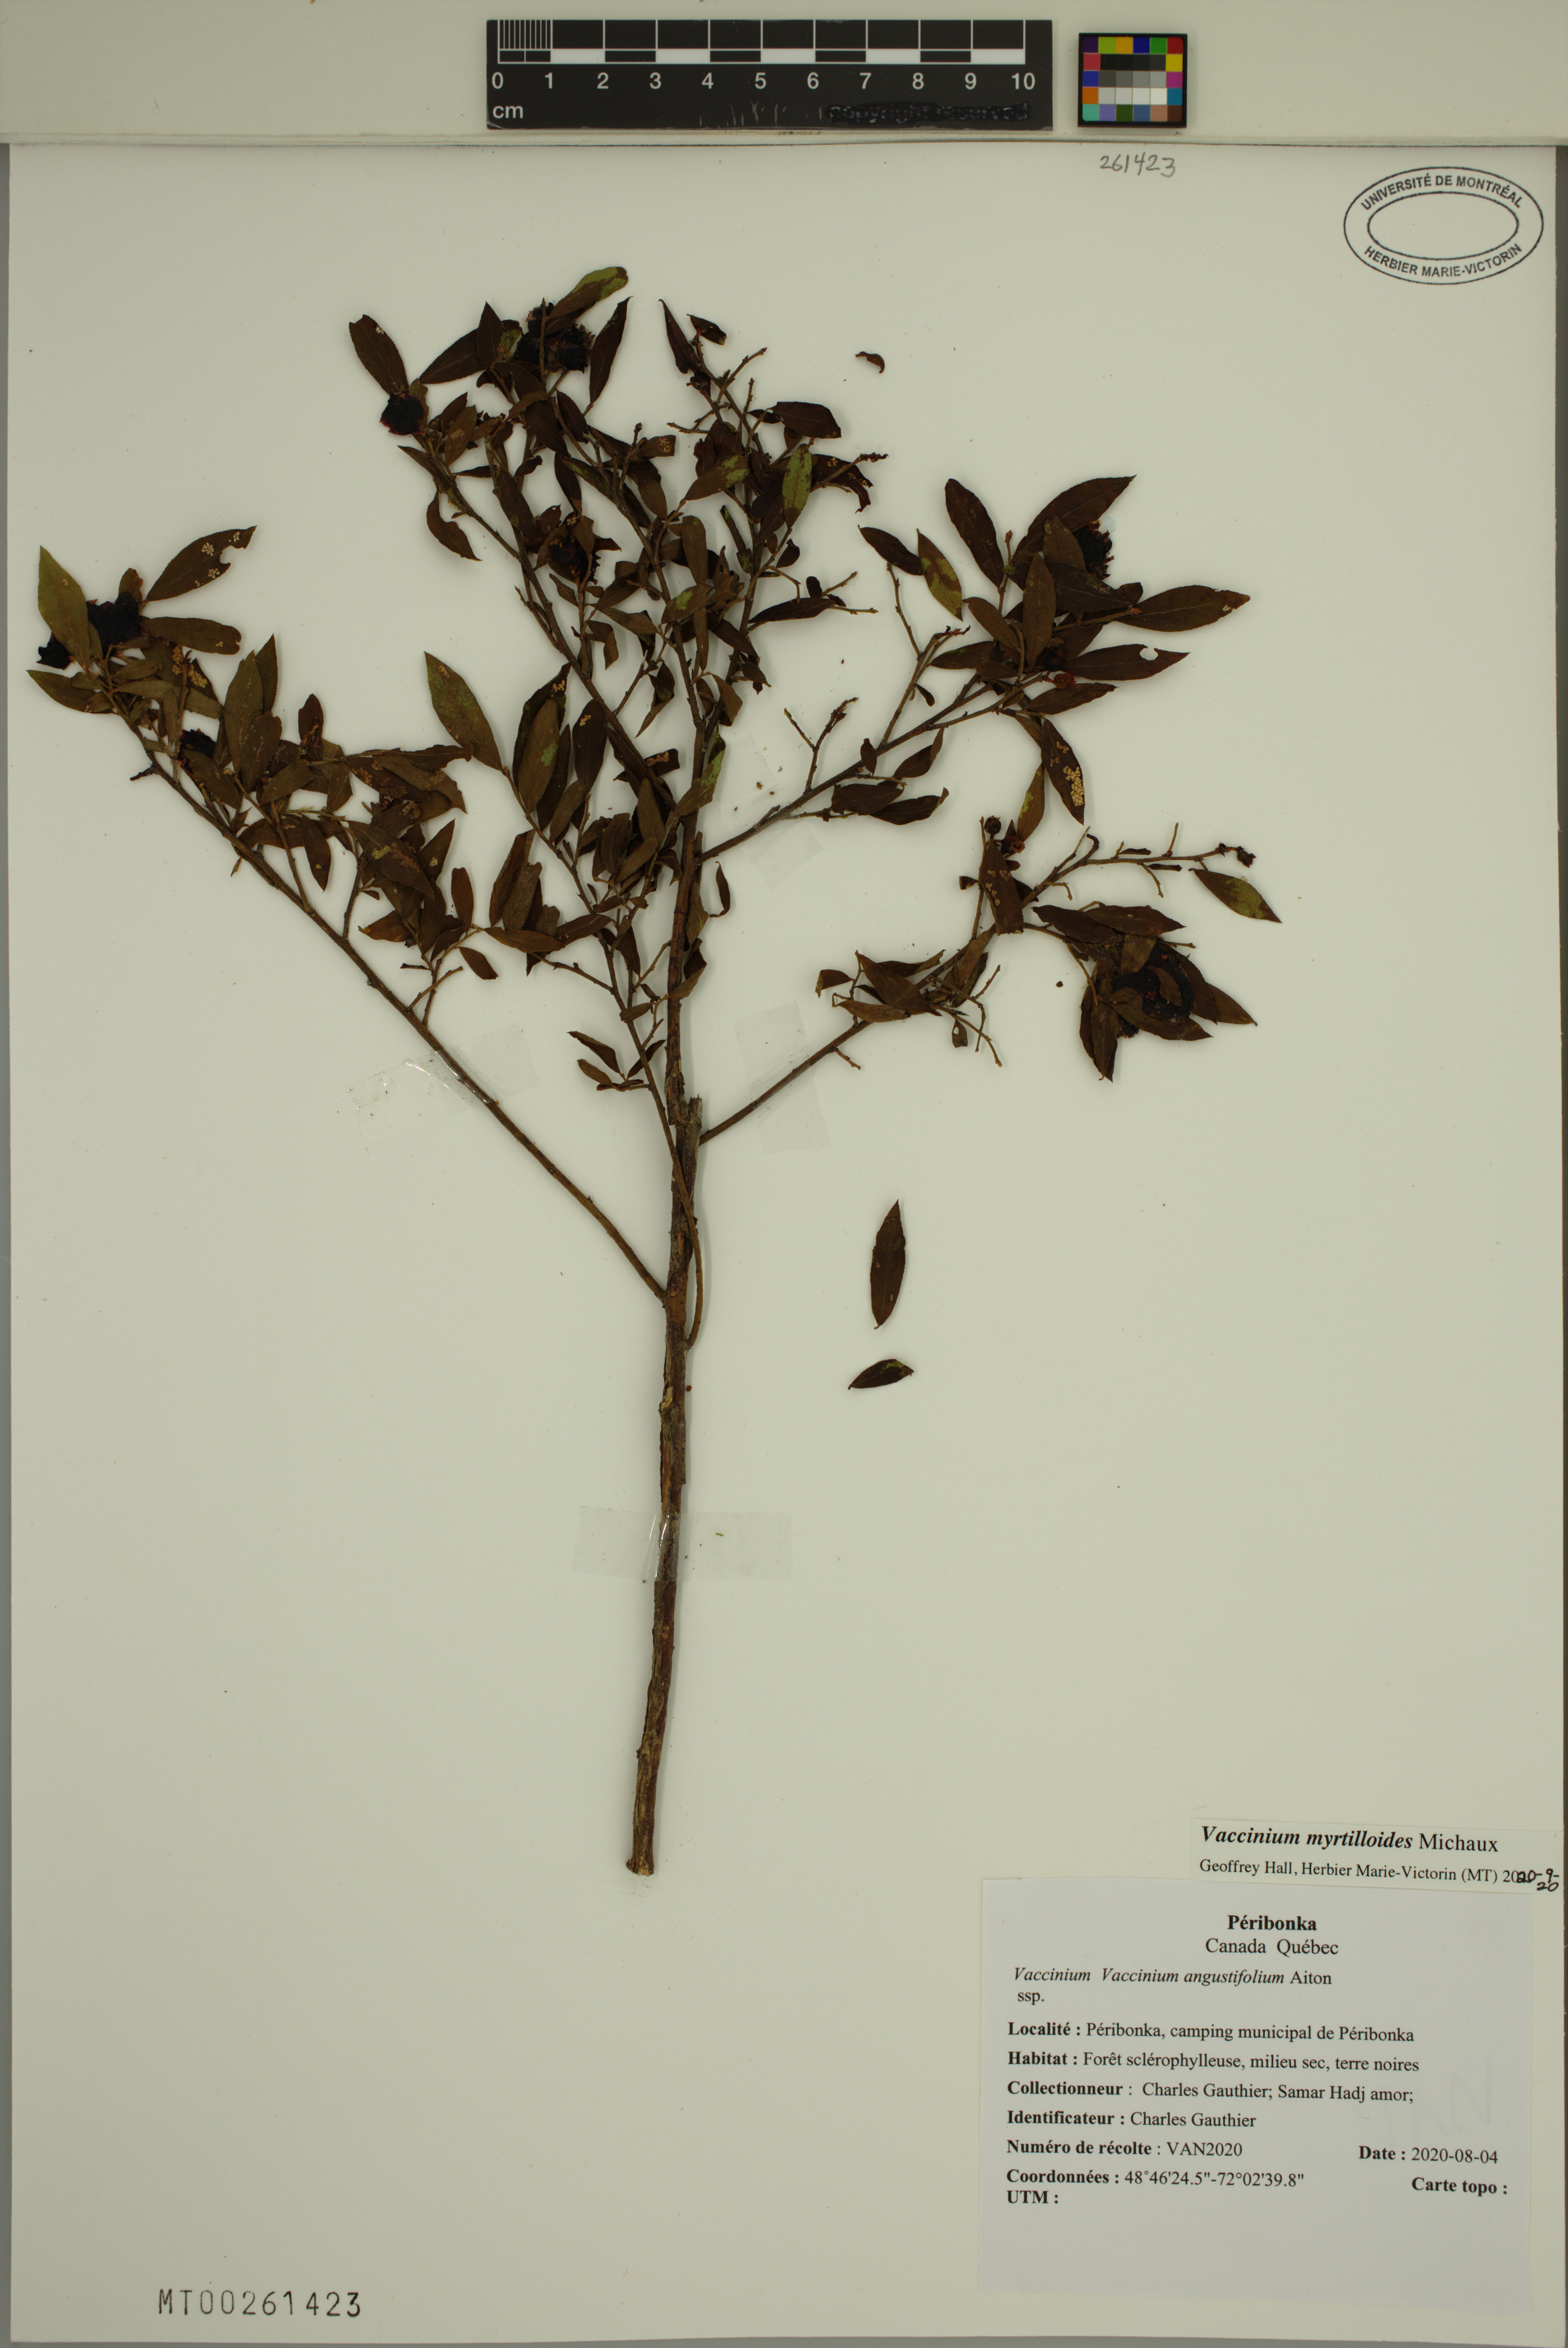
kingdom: Plantae
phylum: Tracheophyta
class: Magnoliopsida
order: Ericales
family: Ericaceae
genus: Vaccinium
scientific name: Vaccinium myrtilloides
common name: Canada blueberry
